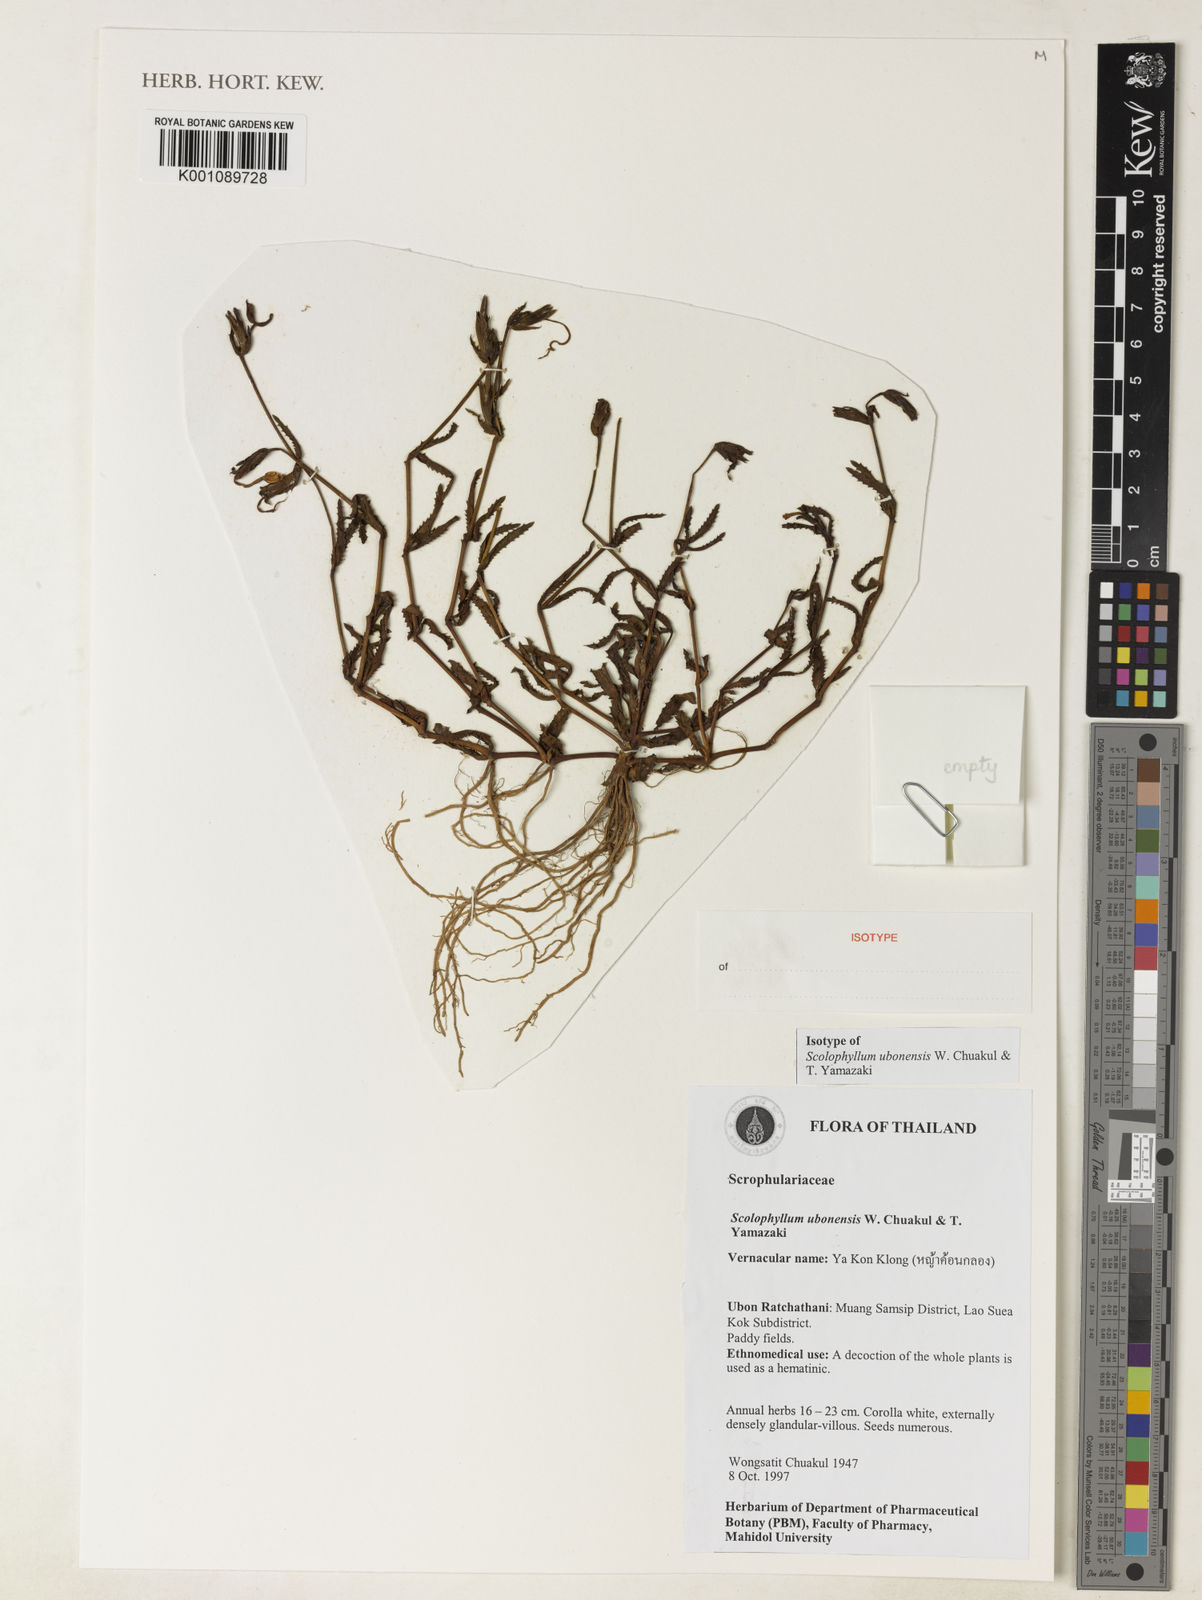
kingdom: Plantae
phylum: Tracheophyta
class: Magnoliopsida
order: Lamiales
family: Linderniaceae
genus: Scolophyllum
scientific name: Scolophyllum
